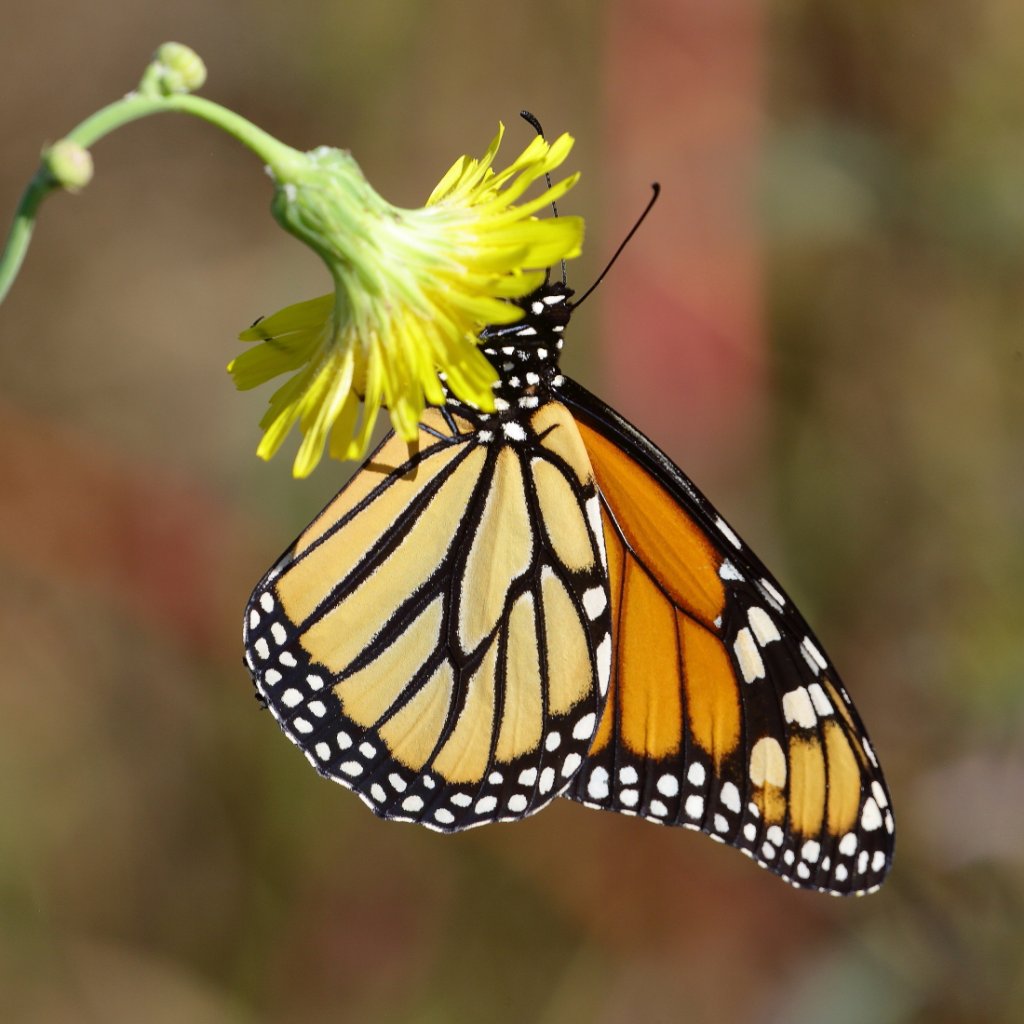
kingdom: Animalia
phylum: Arthropoda
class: Insecta
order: Lepidoptera
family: Nymphalidae
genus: Danaus
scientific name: Danaus plexippus
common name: Monarch
